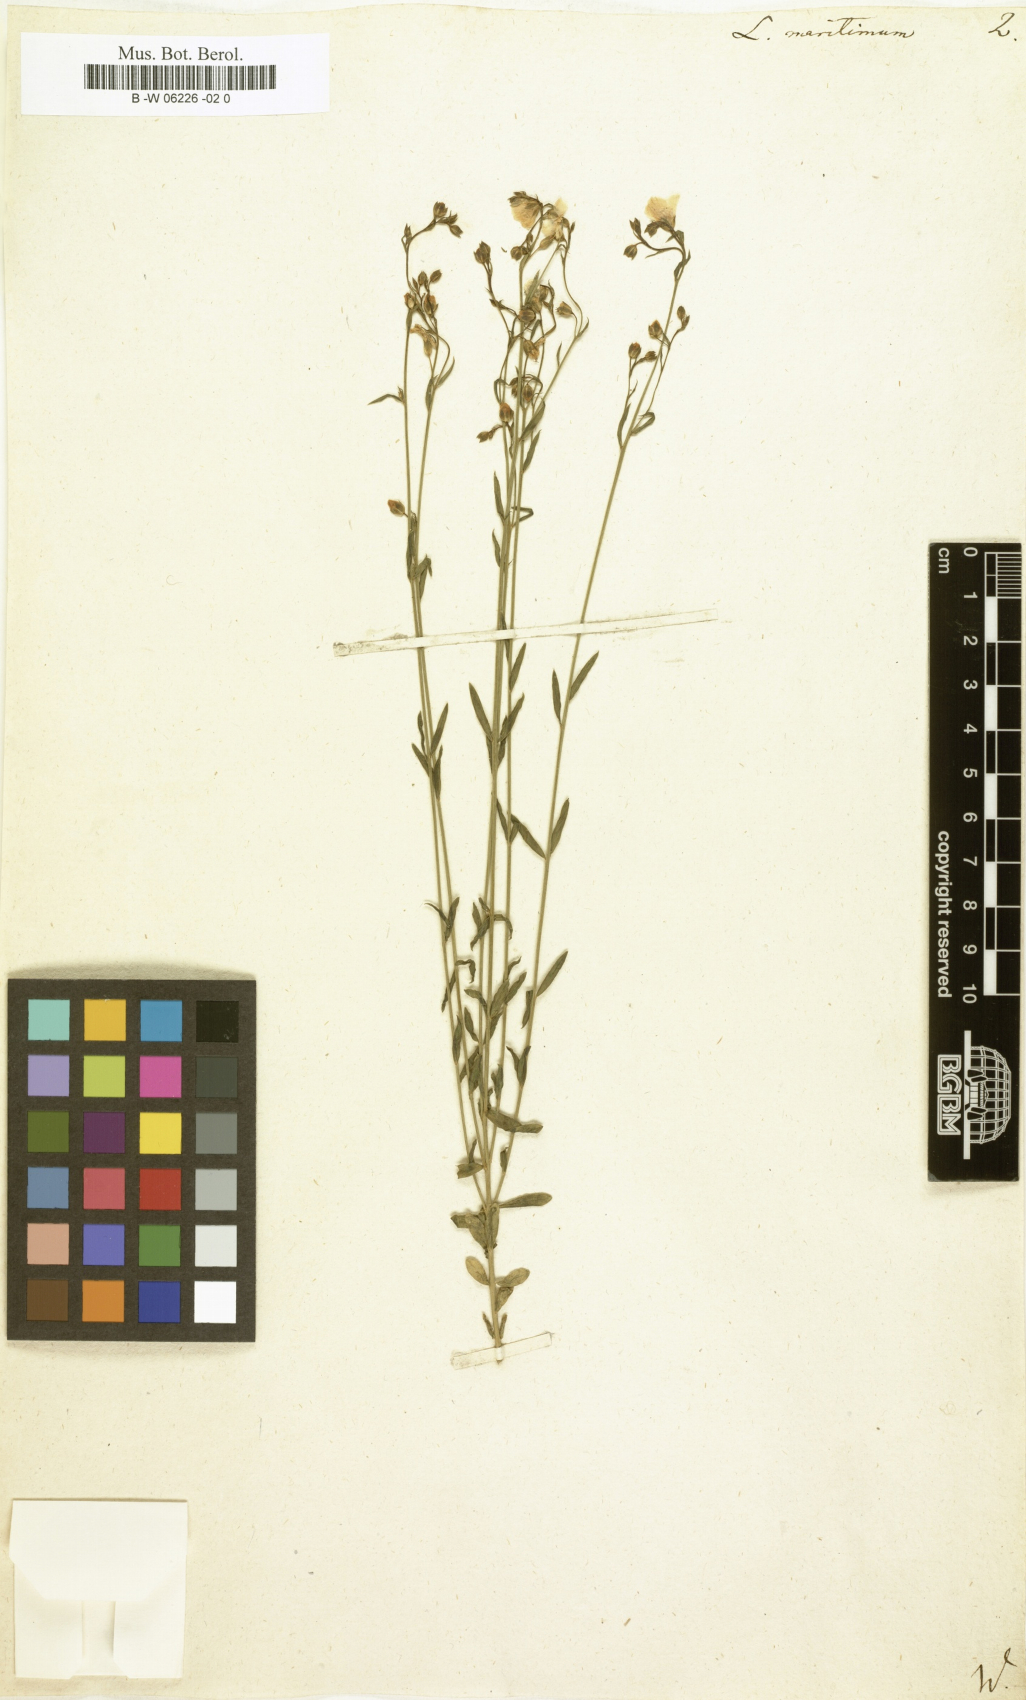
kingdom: Plantae
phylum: Tracheophyta
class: Magnoliopsida
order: Malpighiales
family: Linaceae
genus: Linum
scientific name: Linum maritimum
